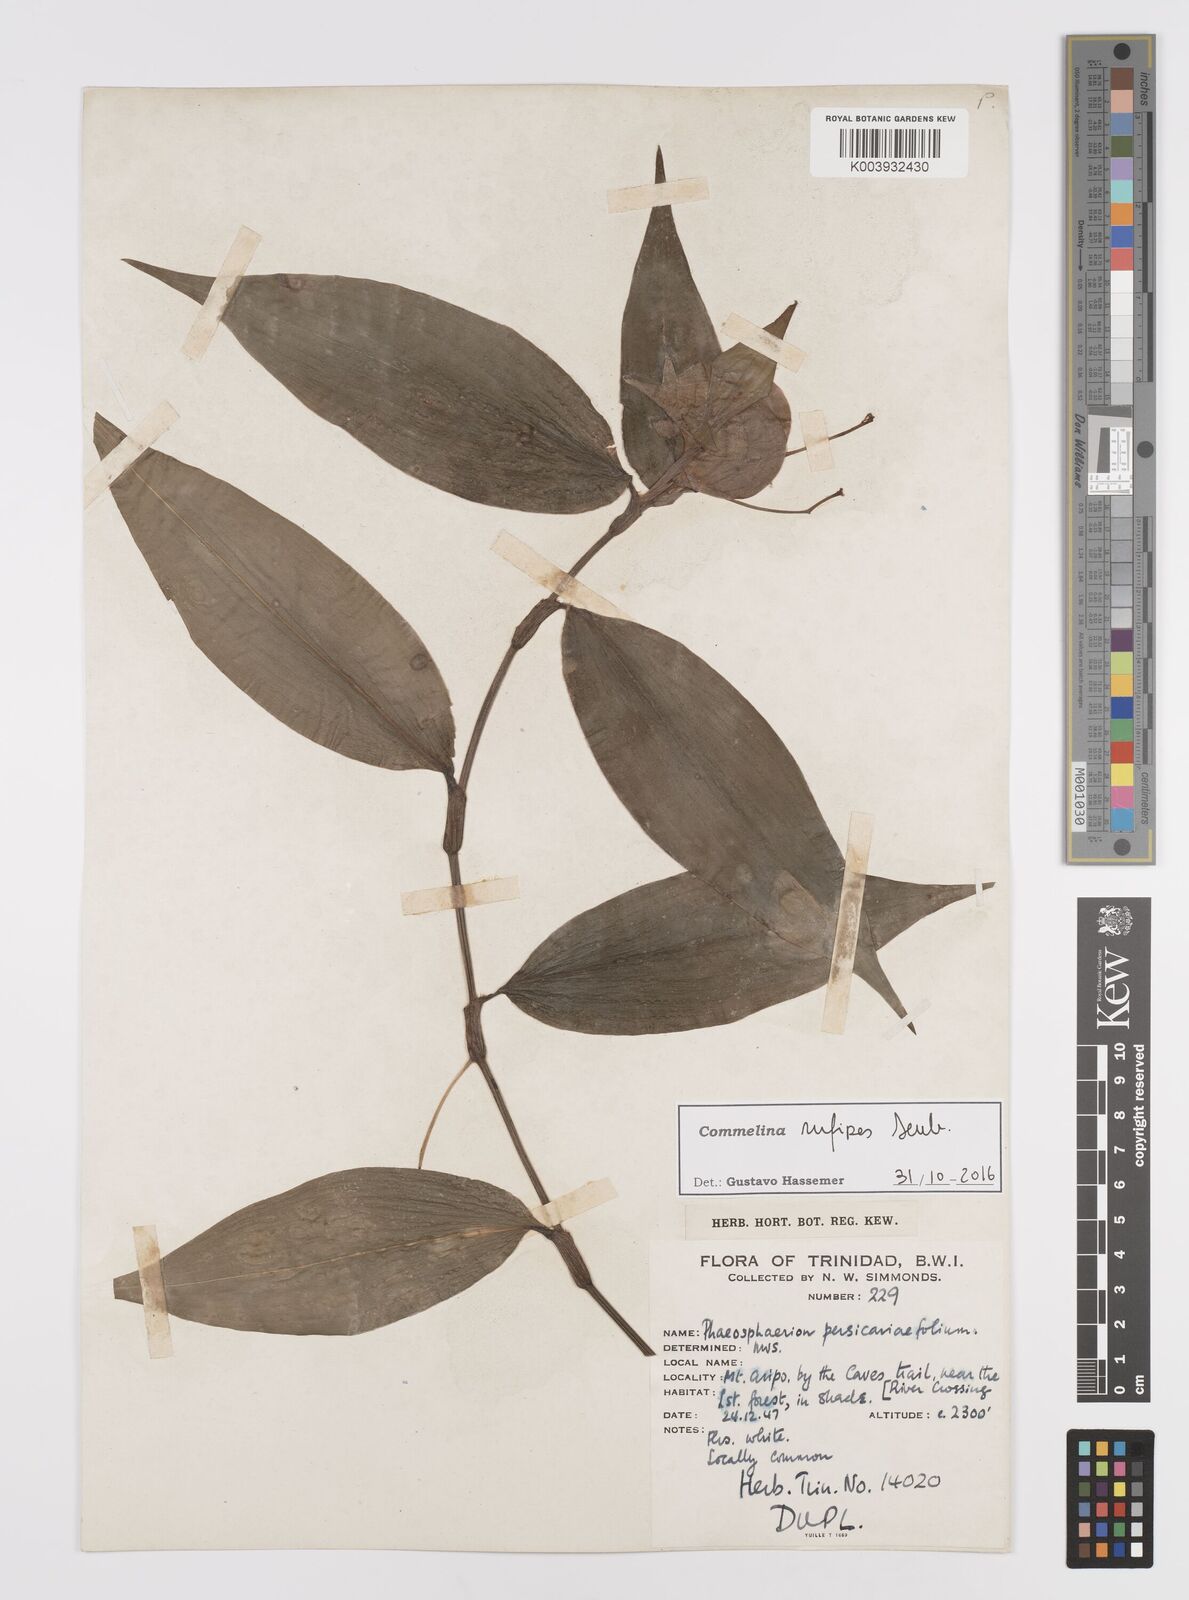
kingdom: Plantae
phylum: Tracheophyta
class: Liliopsida
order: Commelinales
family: Commelinaceae
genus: Commelina
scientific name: Commelina rufipes
